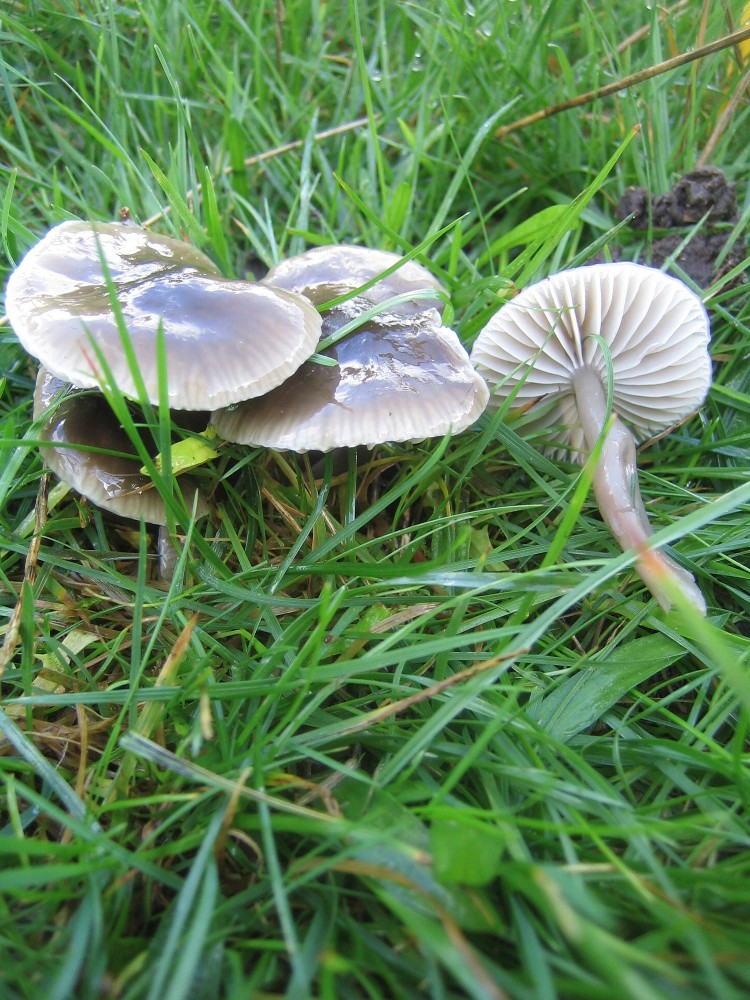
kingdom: Fungi
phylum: Basidiomycota
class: Agaricomycetes
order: Agaricales
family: Hygrophoraceae
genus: Gliophorus
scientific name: Gliophorus irrigatus
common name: slimet vokshat
